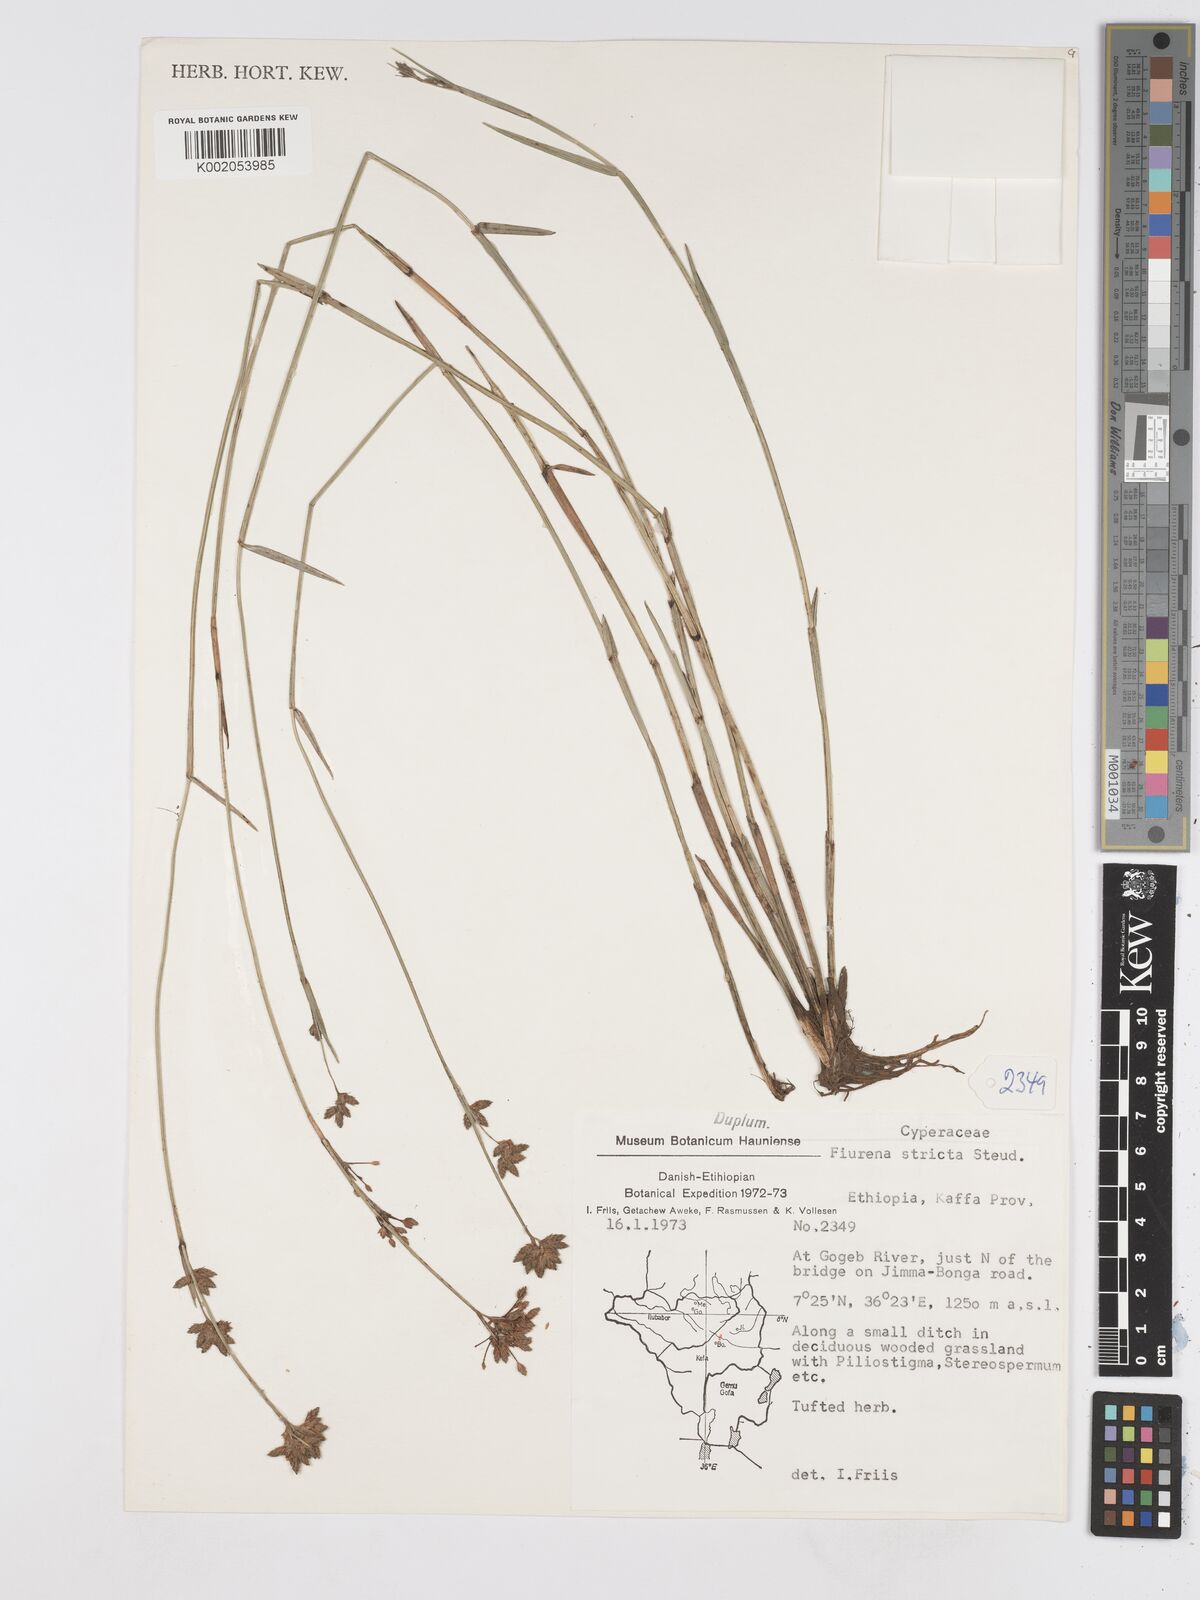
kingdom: Plantae
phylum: Tracheophyta
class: Liliopsida
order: Poales
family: Cyperaceae
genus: Fuirena
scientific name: Fuirena stricta
